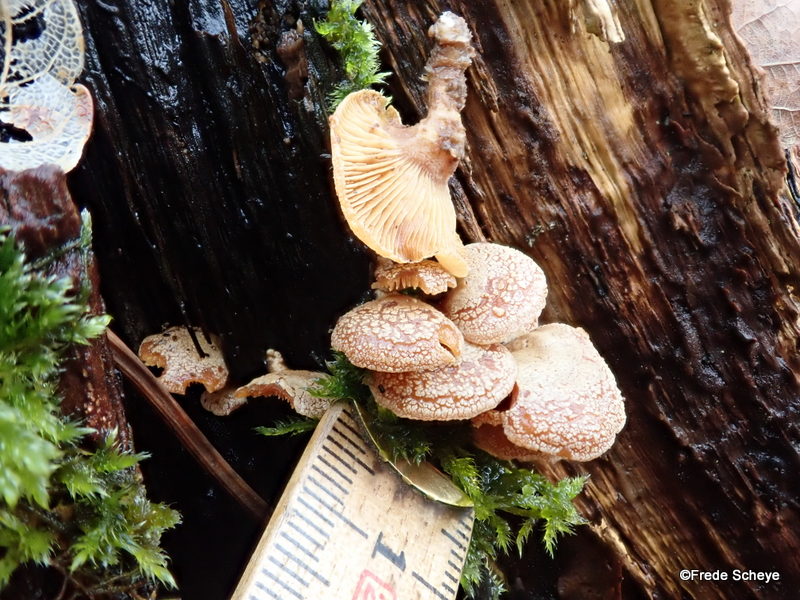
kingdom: Fungi
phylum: Basidiomycota
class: Agaricomycetes
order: Agaricales
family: Mycenaceae
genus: Panellus
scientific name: Panellus stipticus
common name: kliddet epaulethat
